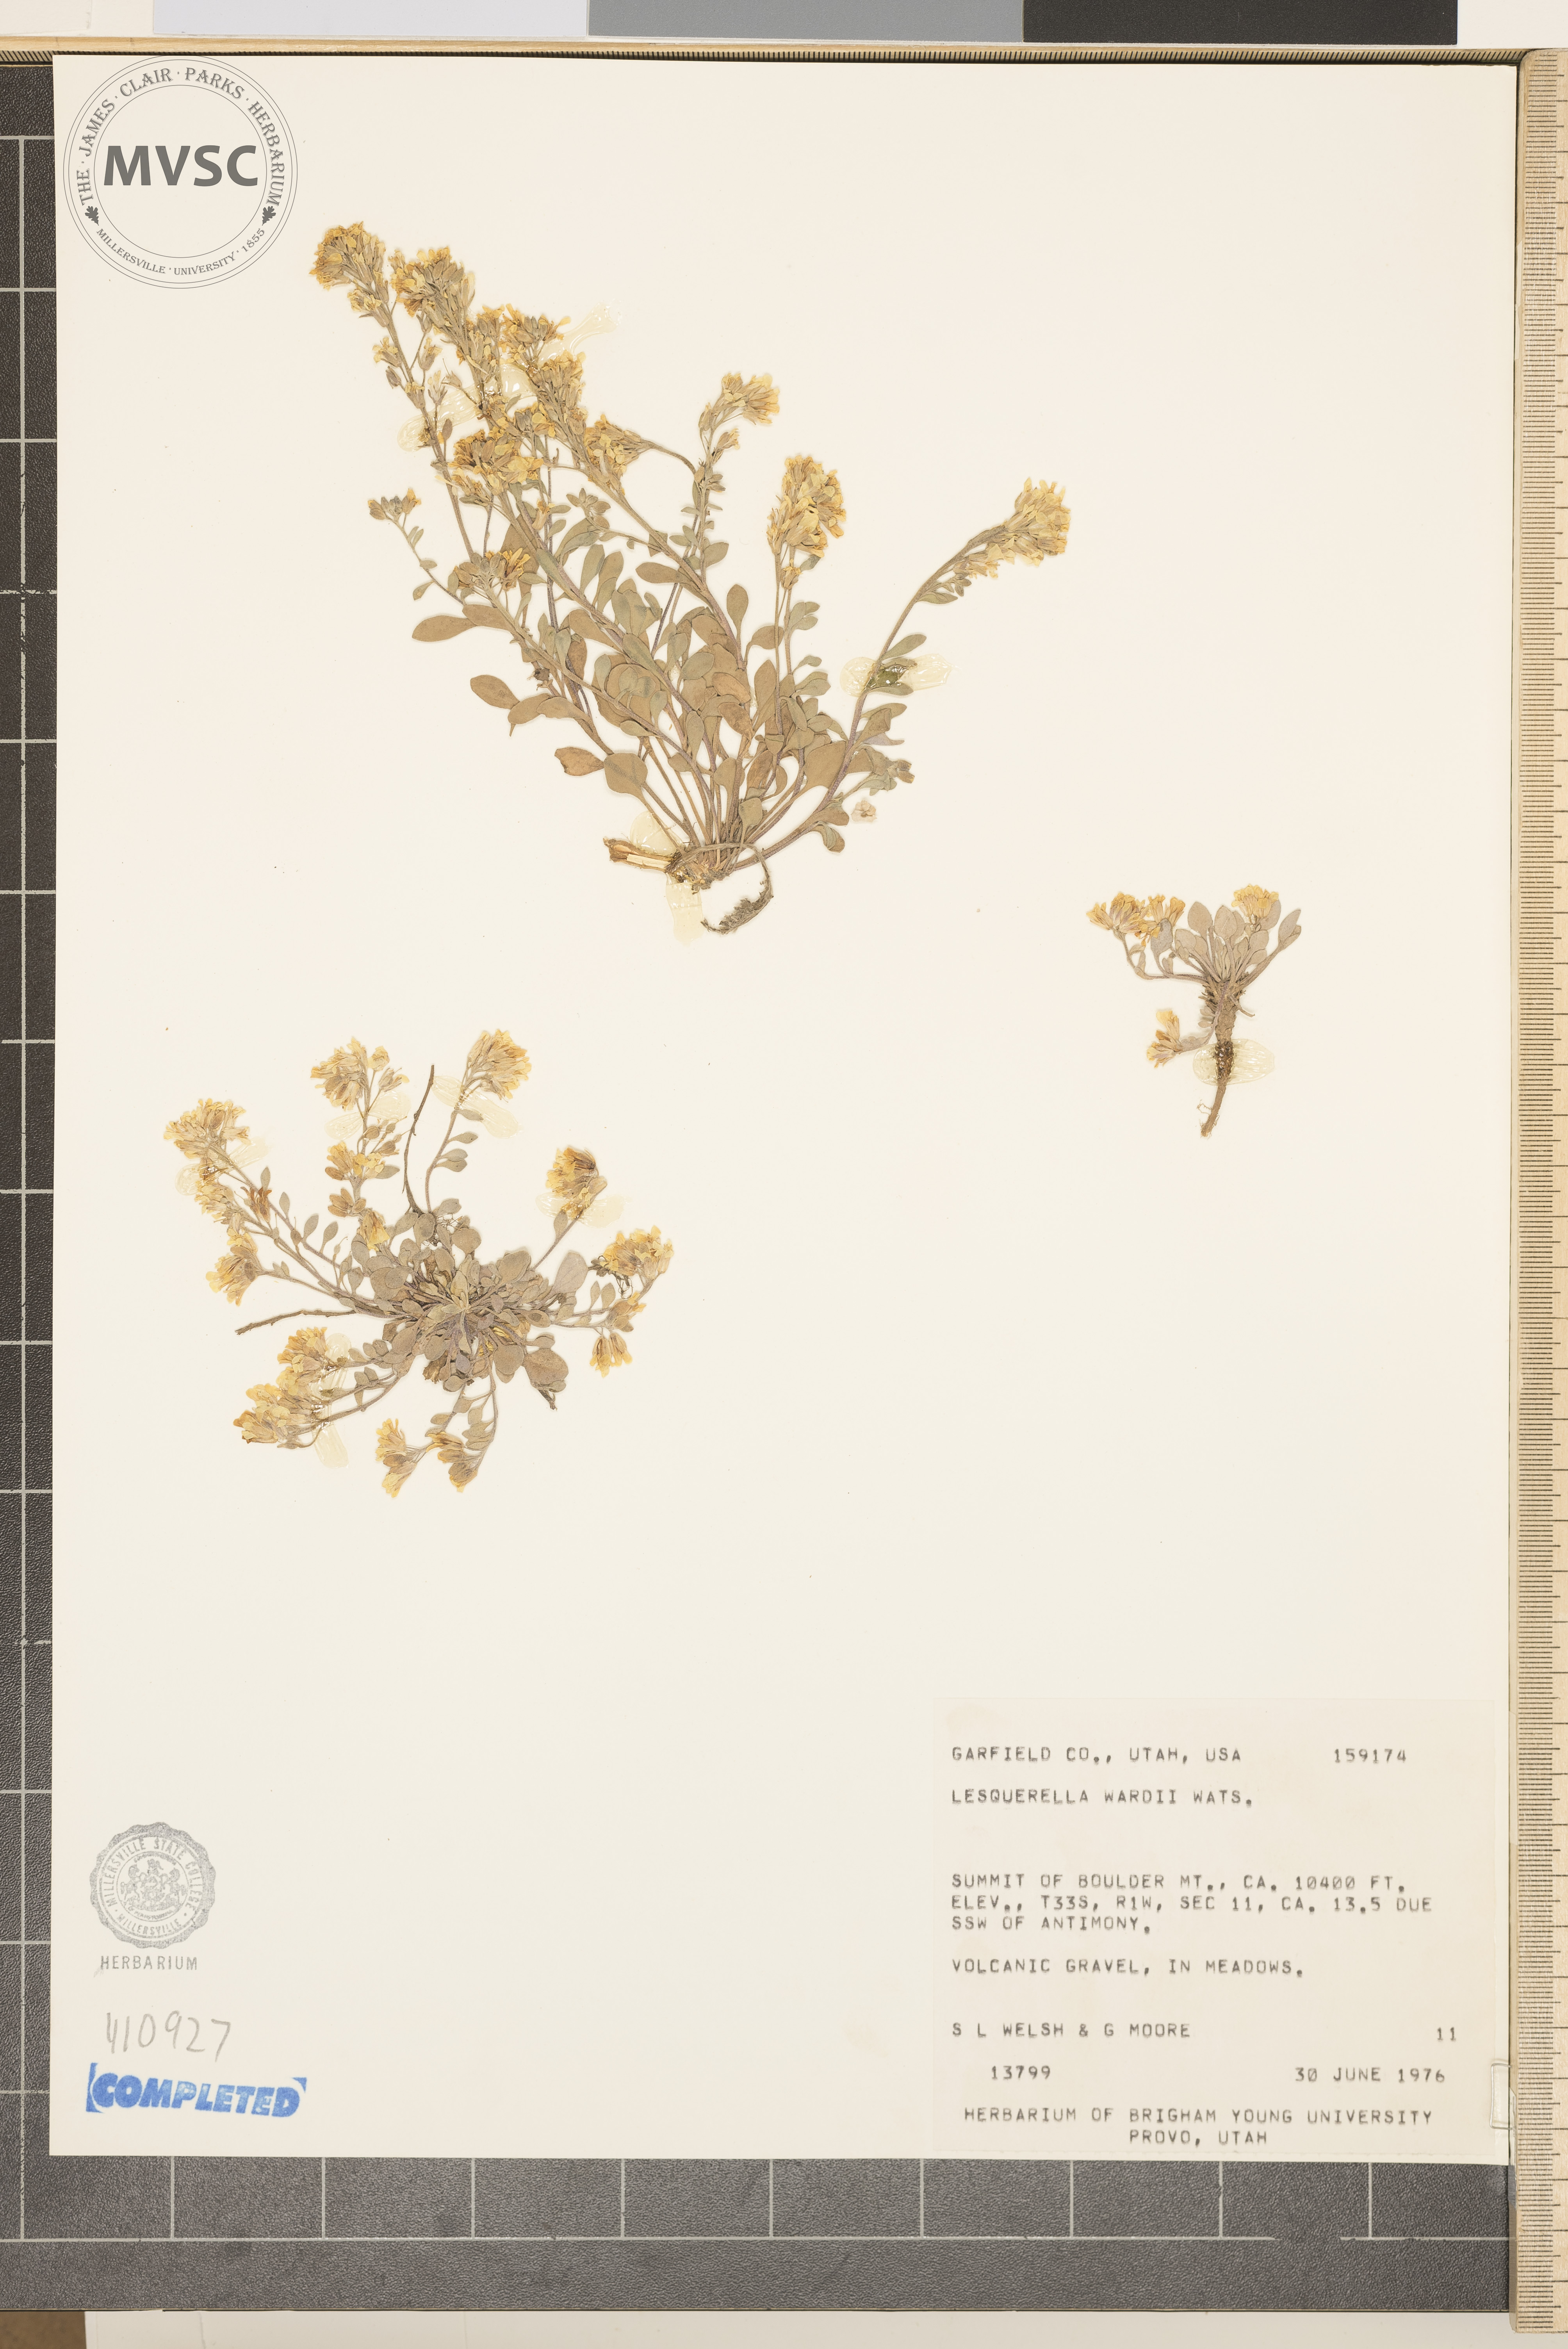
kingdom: Plantae
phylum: Tracheophyta
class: Magnoliopsida
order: Brassicales
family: Brassicaceae
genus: Physaria
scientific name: Physaria kingii
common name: Ward's Bladderpod
